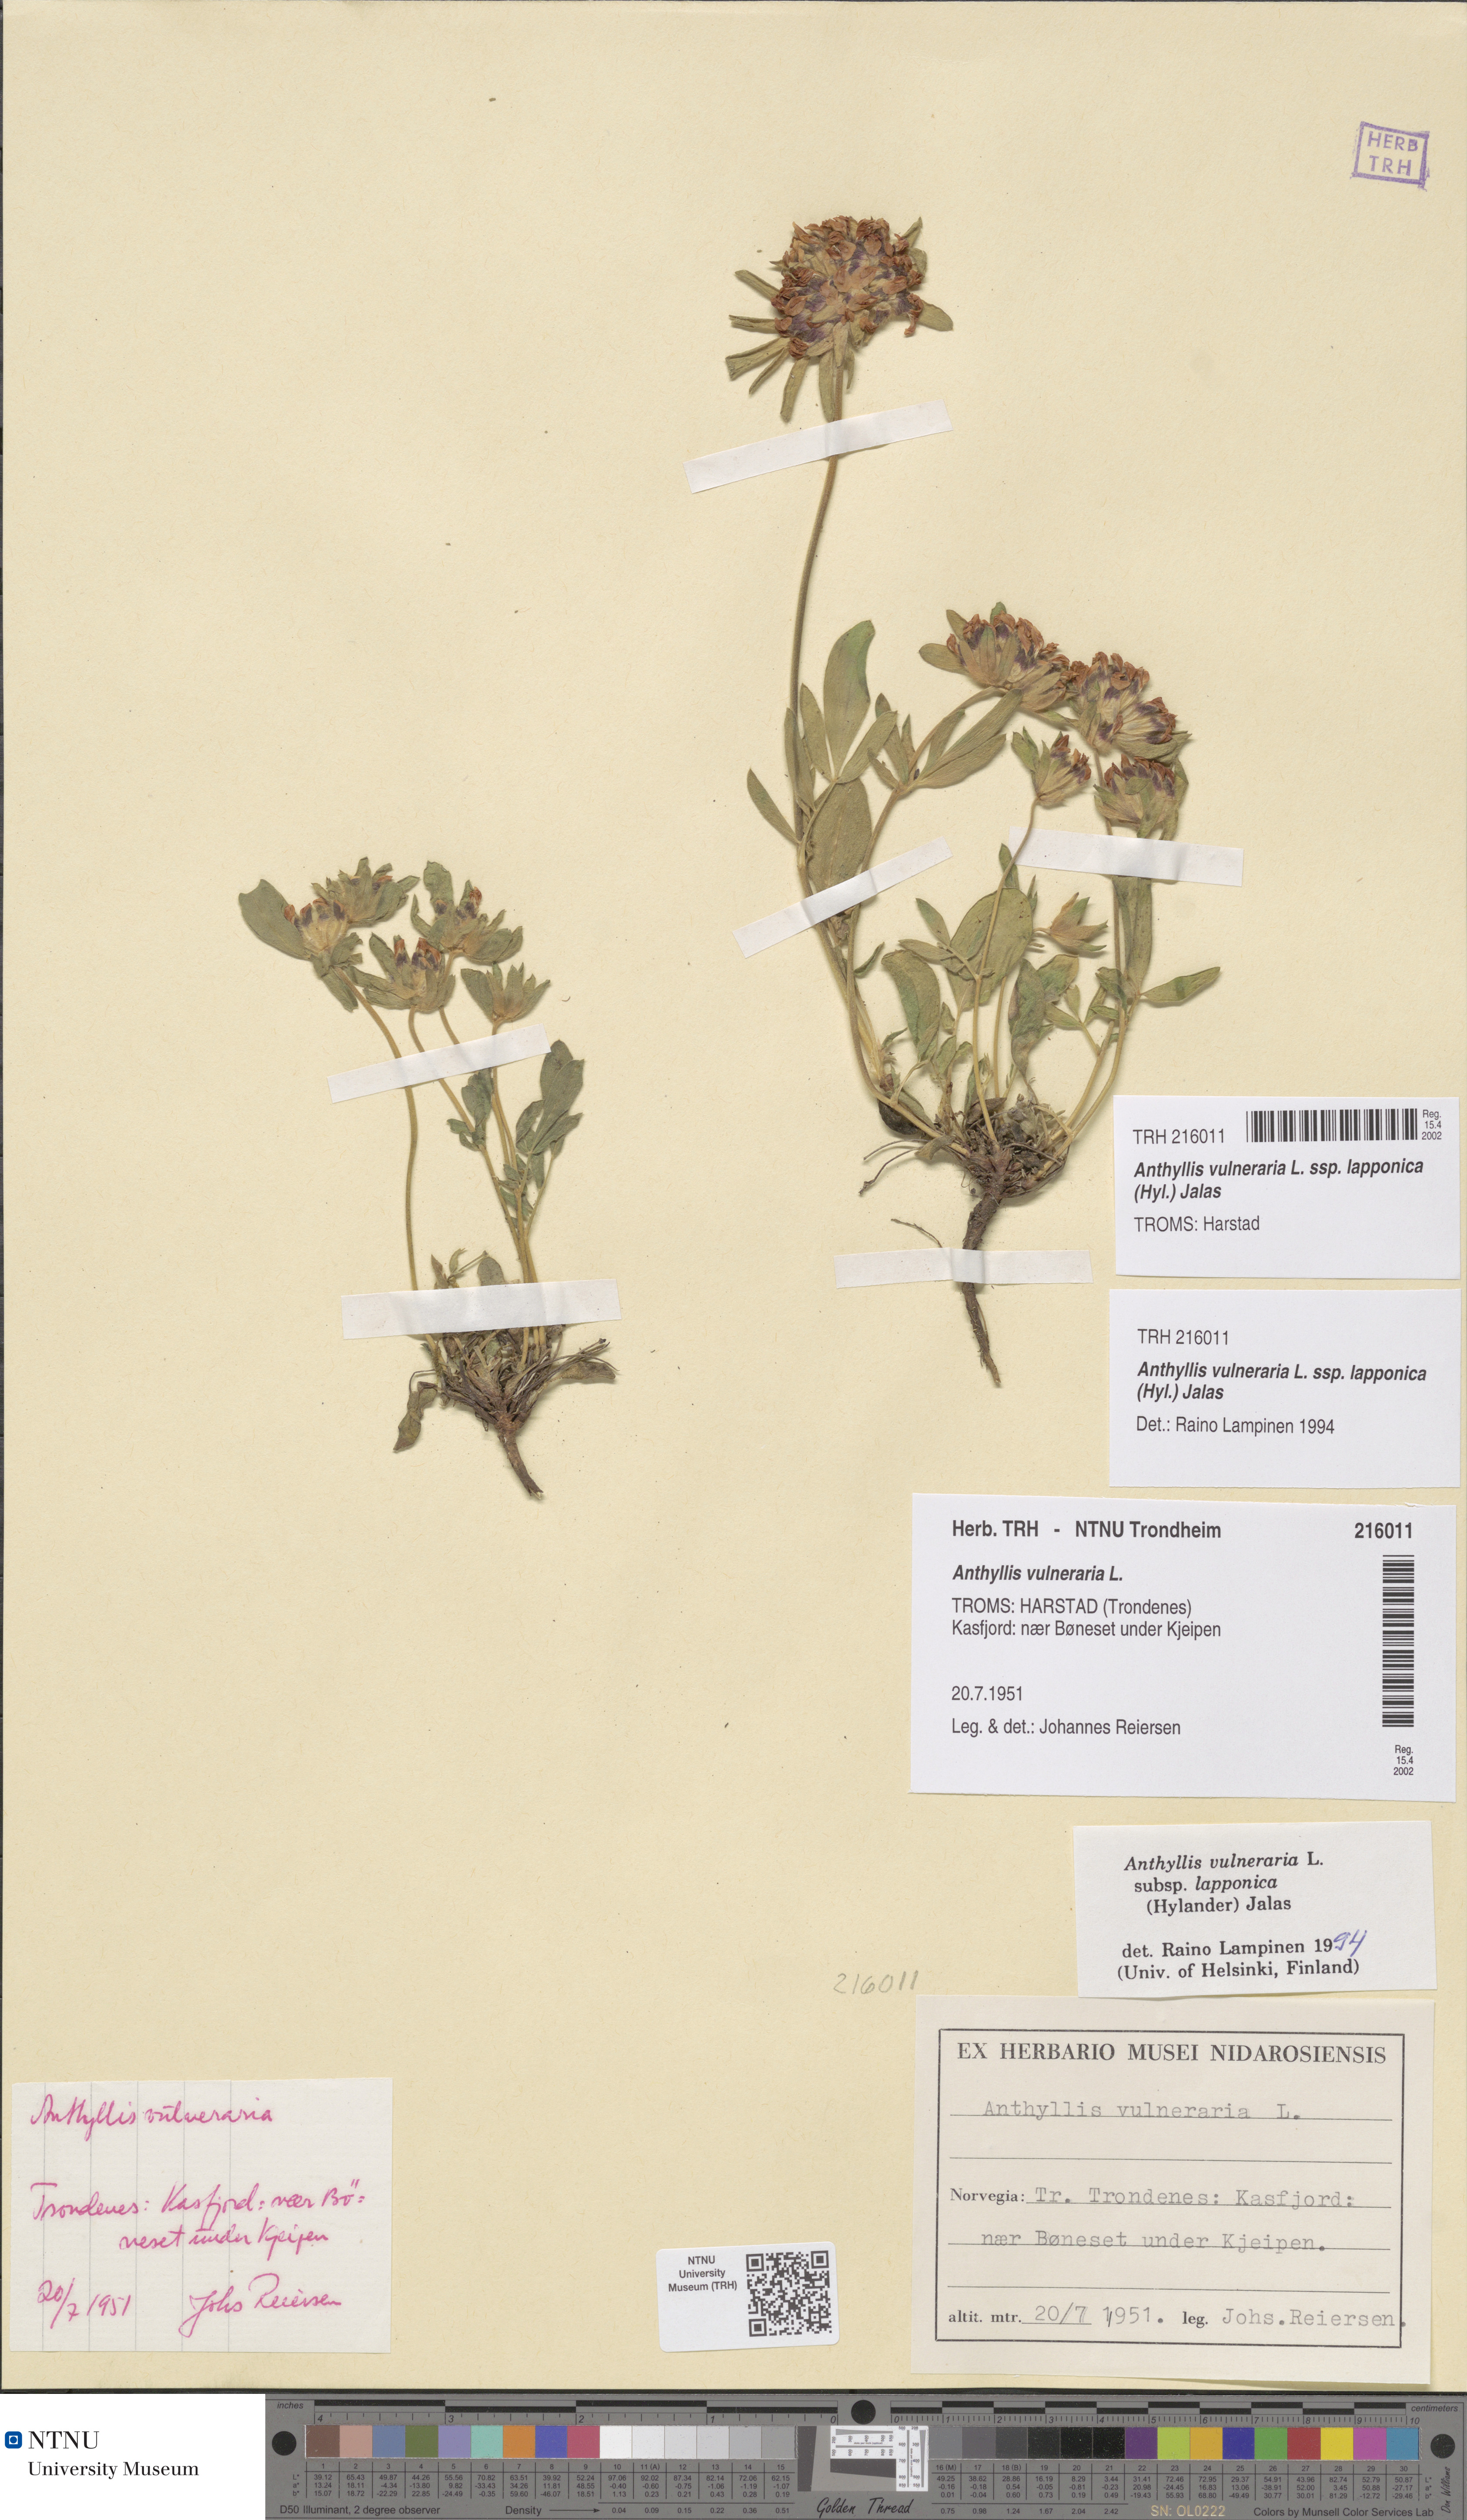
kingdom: Plantae
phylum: Tracheophyta
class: Magnoliopsida
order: Fabales
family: Fabaceae
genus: Anthyllis
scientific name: Anthyllis vulneraria
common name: Kidney vetch
